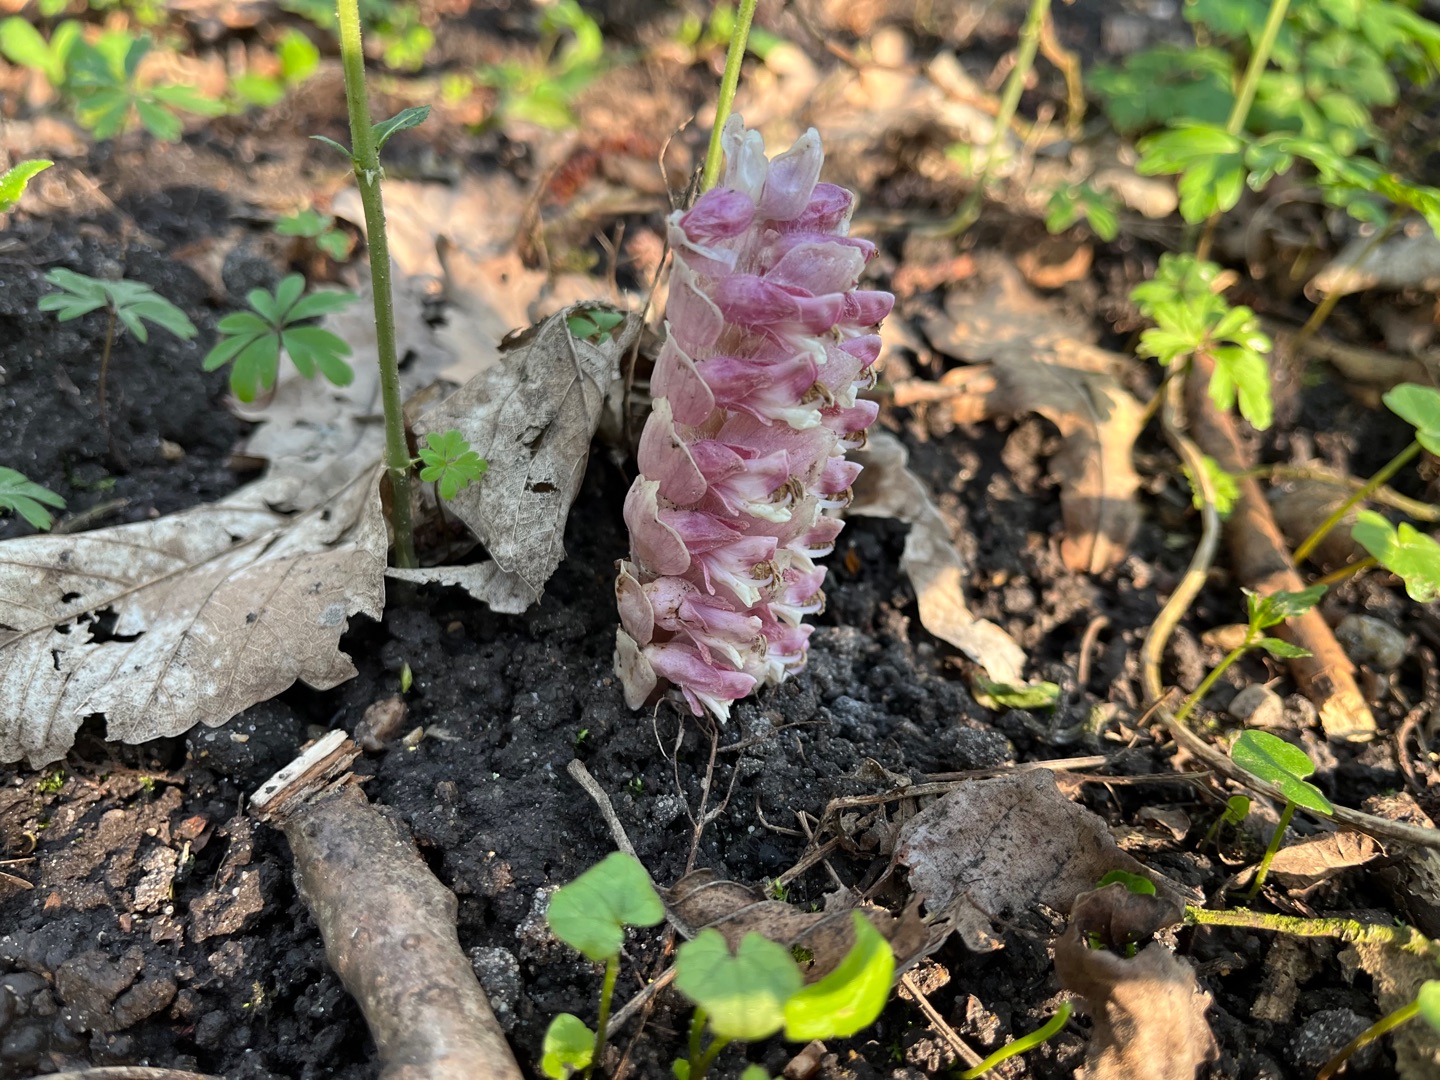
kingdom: Plantae
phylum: Tracheophyta
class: Magnoliopsida
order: Lamiales
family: Orobanchaceae
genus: Lathraea
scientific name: Lathraea squamaria
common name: Skælrod
